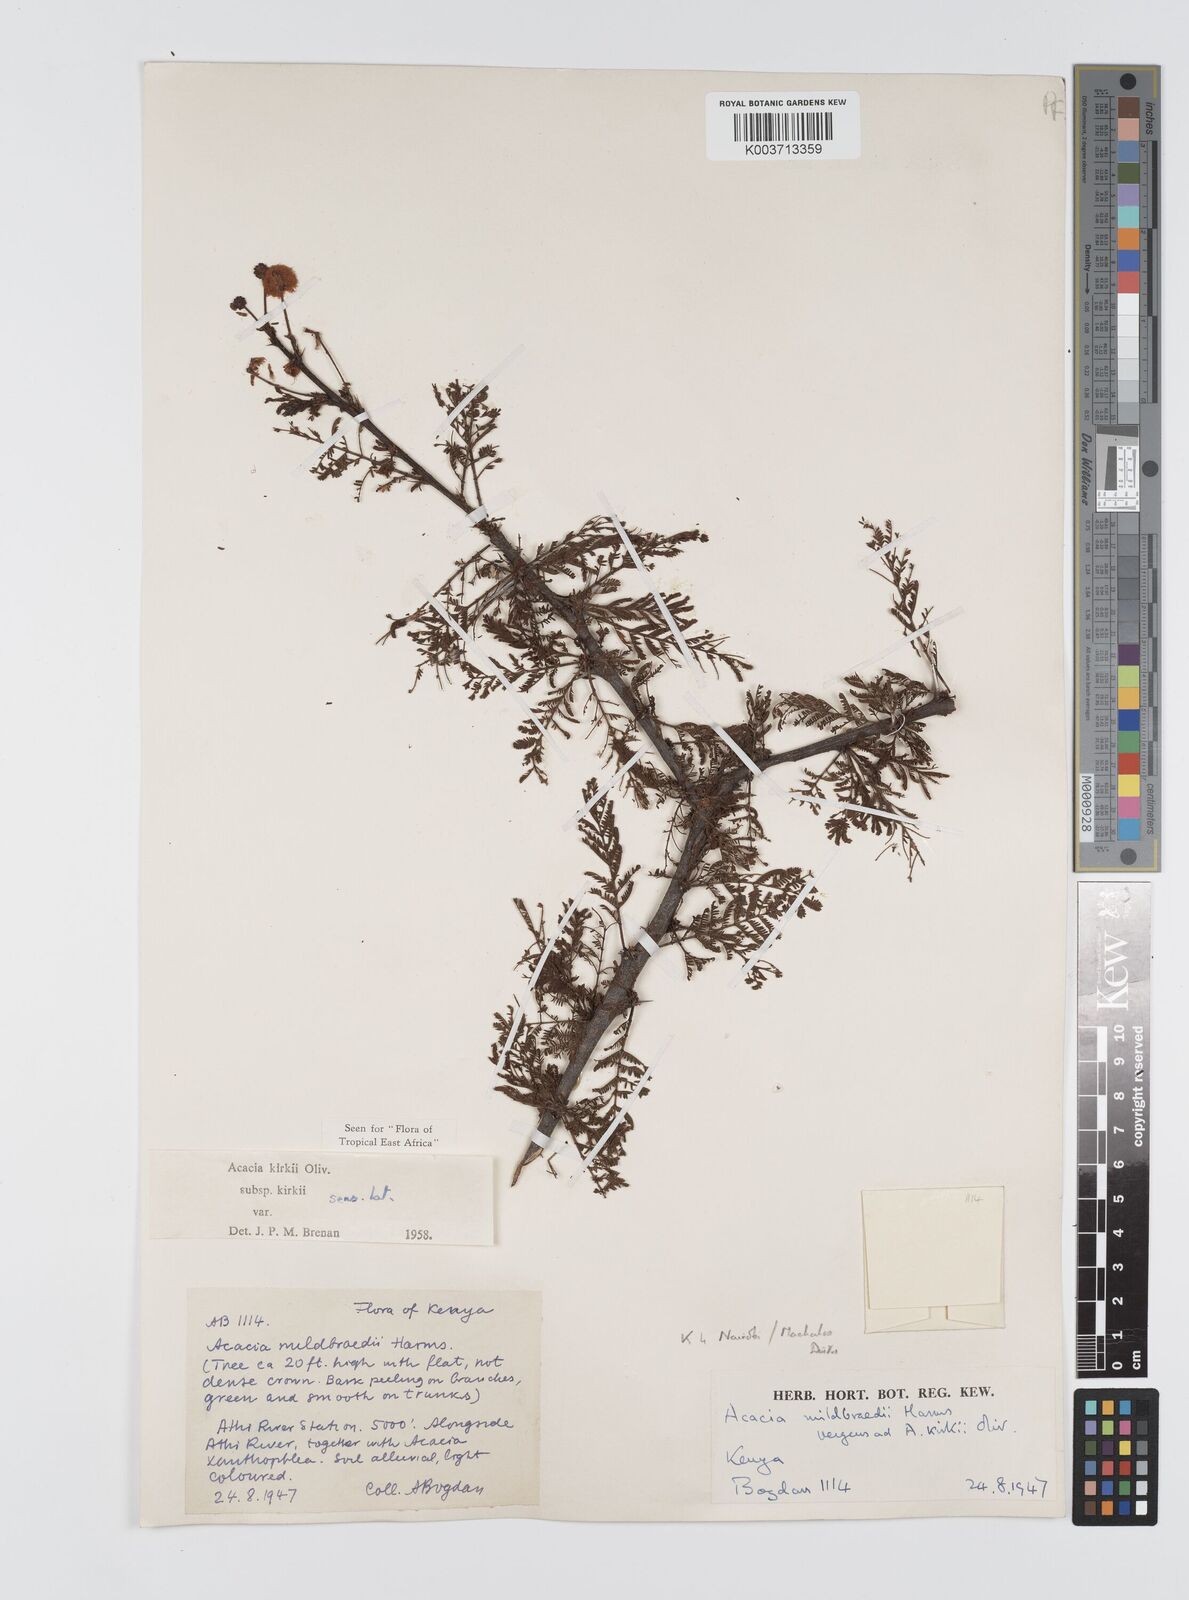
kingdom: Plantae
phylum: Tracheophyta
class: Magnoliopsida
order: Fabales
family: Fabaceae
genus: Vachellia
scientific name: Vachellia kirkii
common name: Flood-plain acacia
